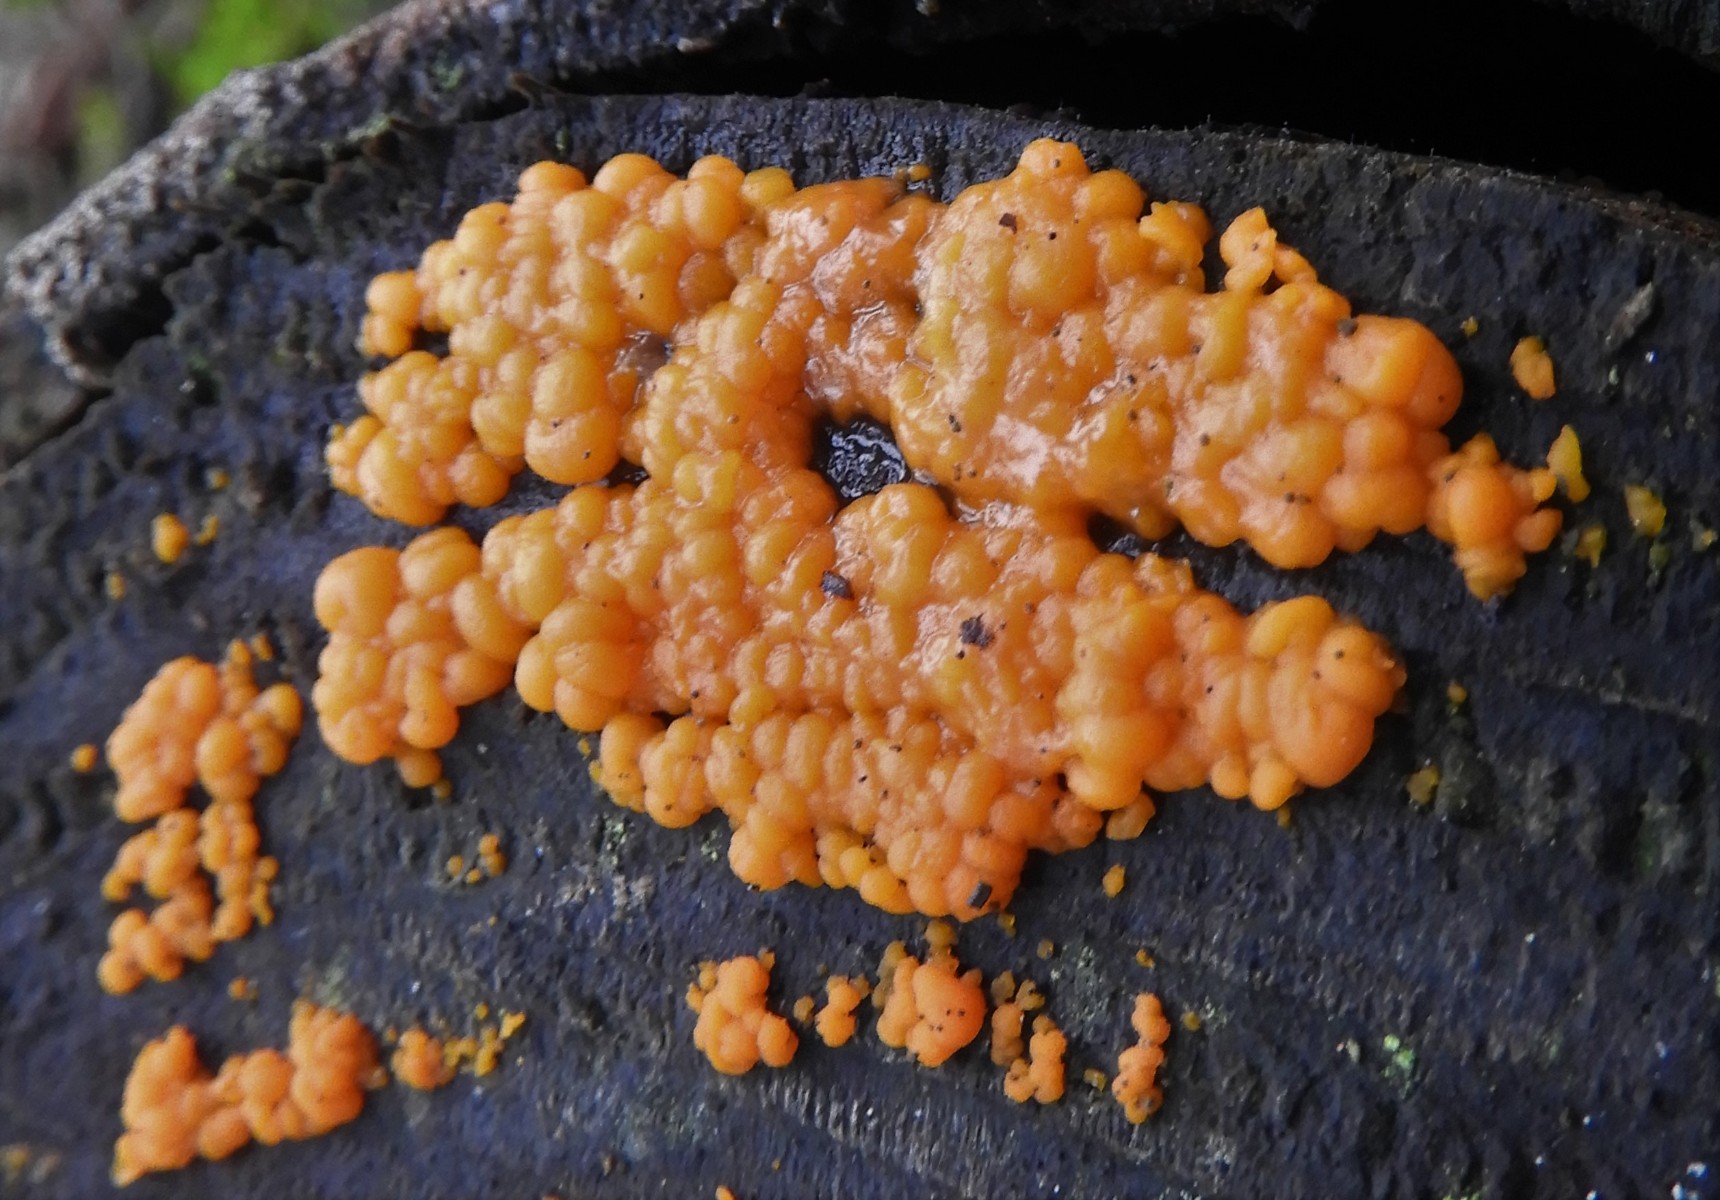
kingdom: Fungi
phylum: Basidiomycota
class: Dacrymycetes
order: Dacrymycetales
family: Dacrymycetaceae
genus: Dacrymyces
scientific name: Dacrymyces stillatus
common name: almindelig tåresvamp
